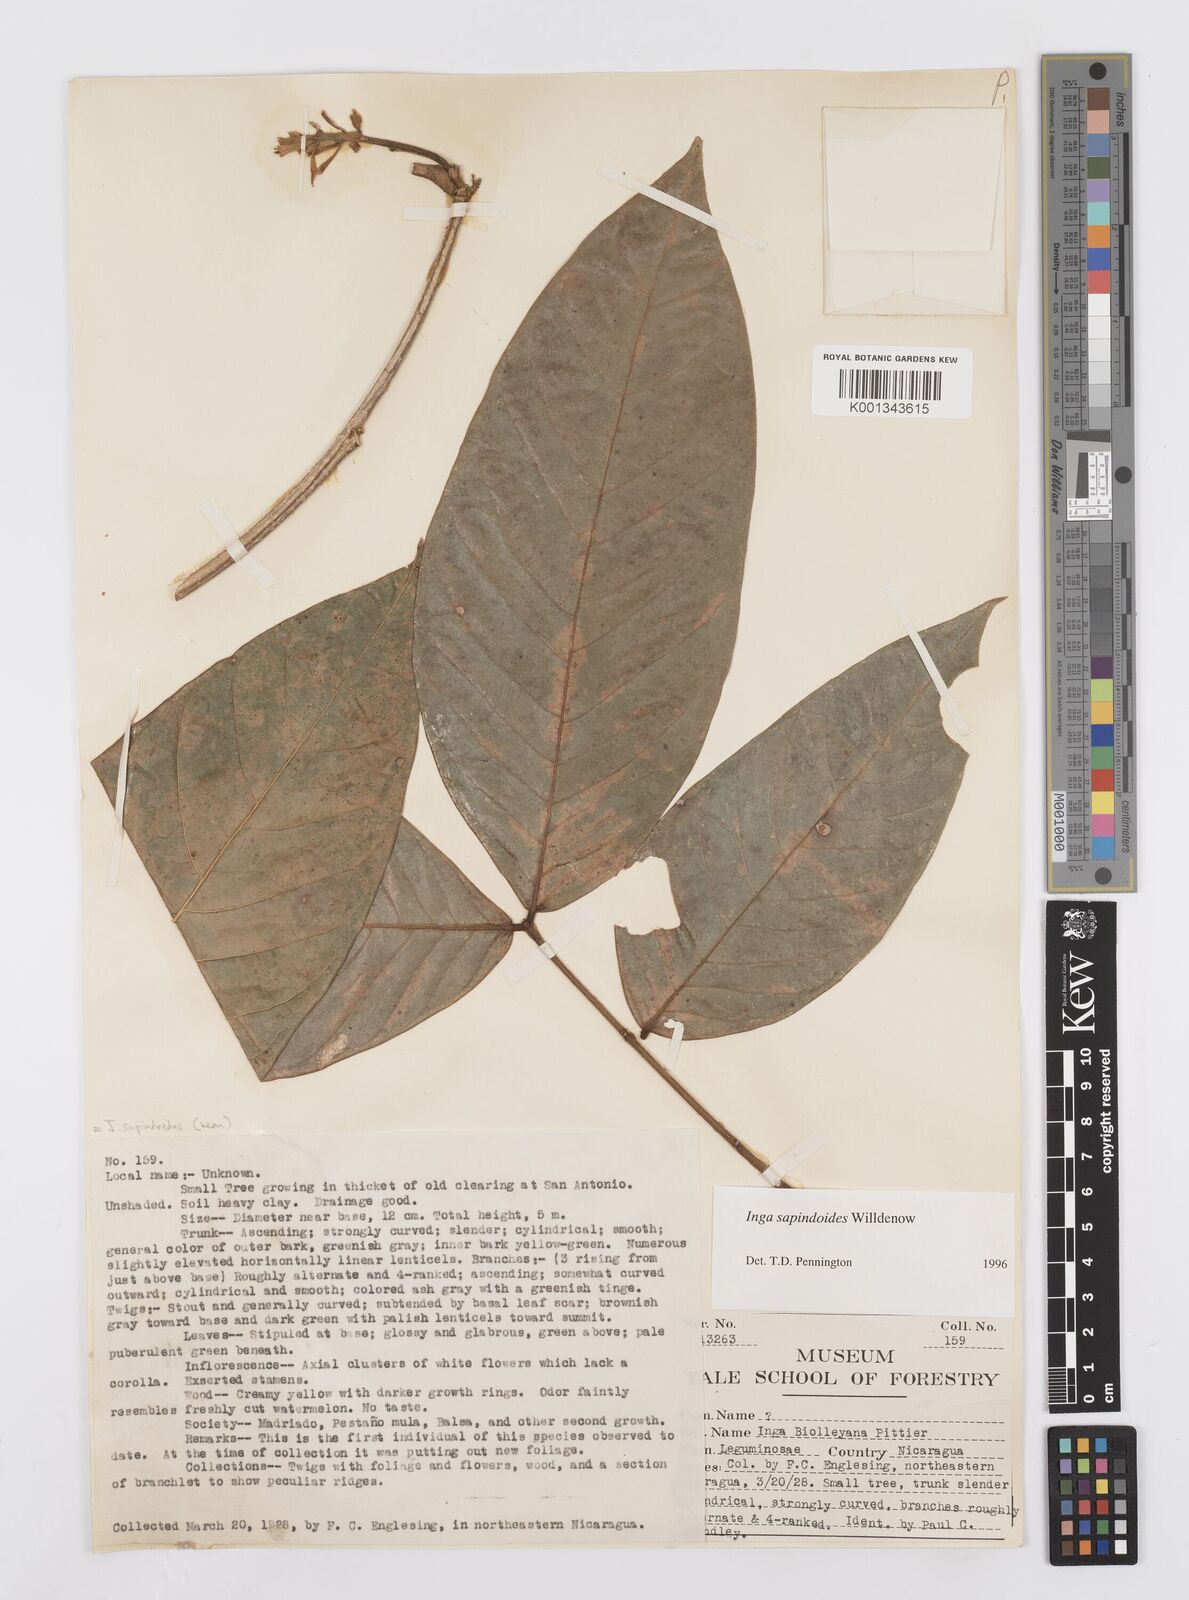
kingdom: Plantae
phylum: Tracheophyta
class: Magnoliopsida
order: Fabales
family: Fabaceae
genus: Inga
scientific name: Inga sapindoides
